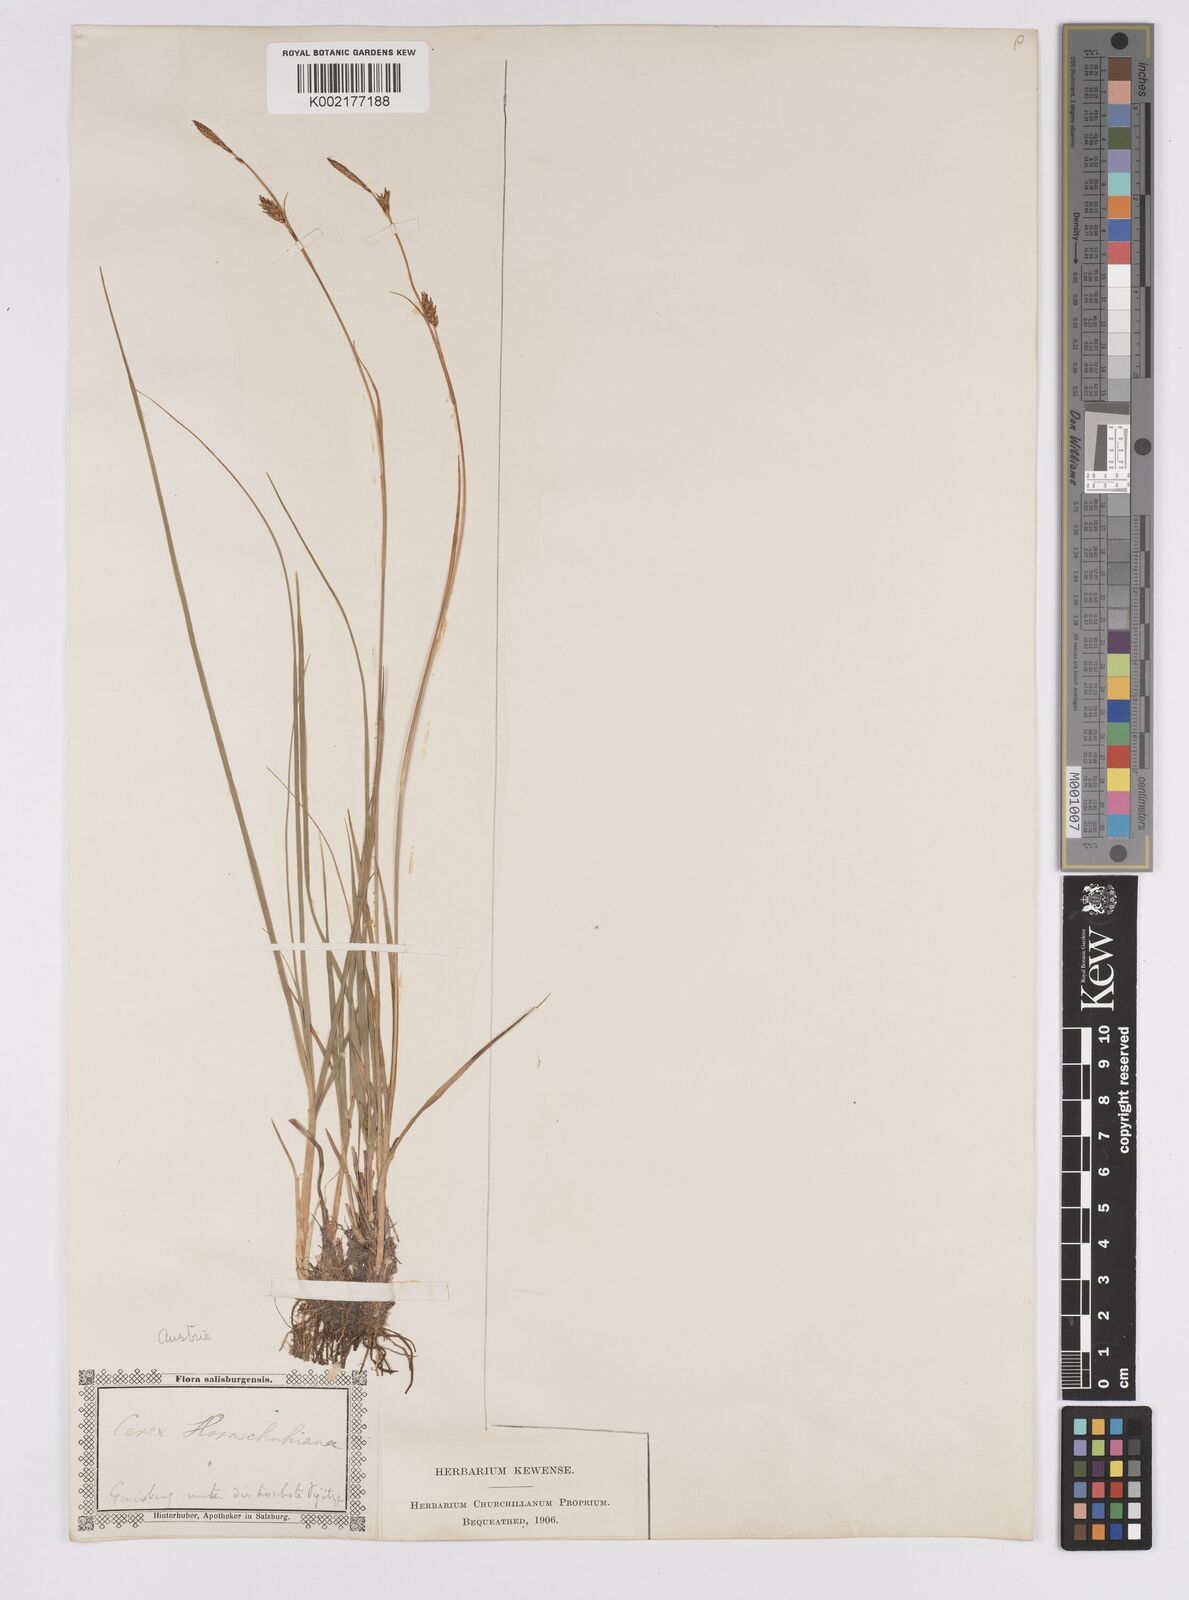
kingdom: Plantae
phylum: Tracheophyta
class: Liliopsida
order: Poales
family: Cyperaceae
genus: Carex
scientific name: Carex hostiana
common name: Tawny sedge
